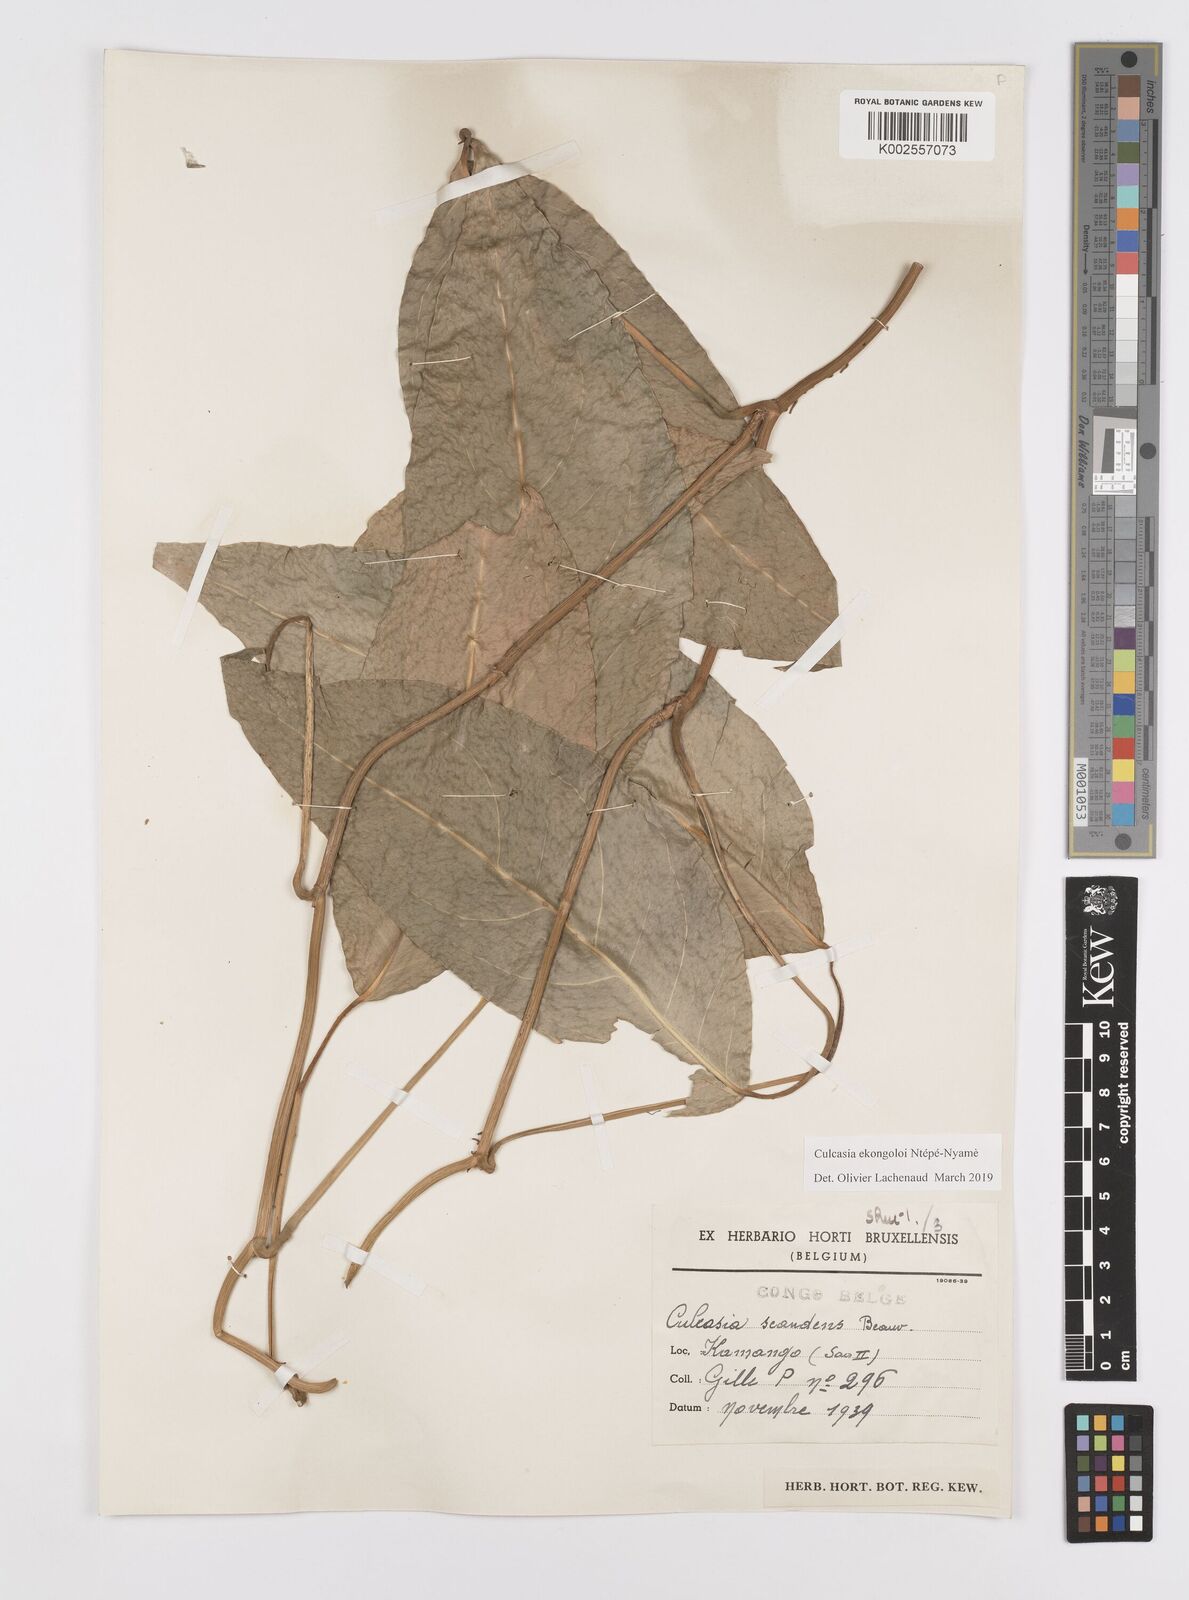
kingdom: Plantae
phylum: Tracheophyta
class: Liliopsida
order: Alismatales
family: Araceae
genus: Culcasia
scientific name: Culcasia ekongoloi
